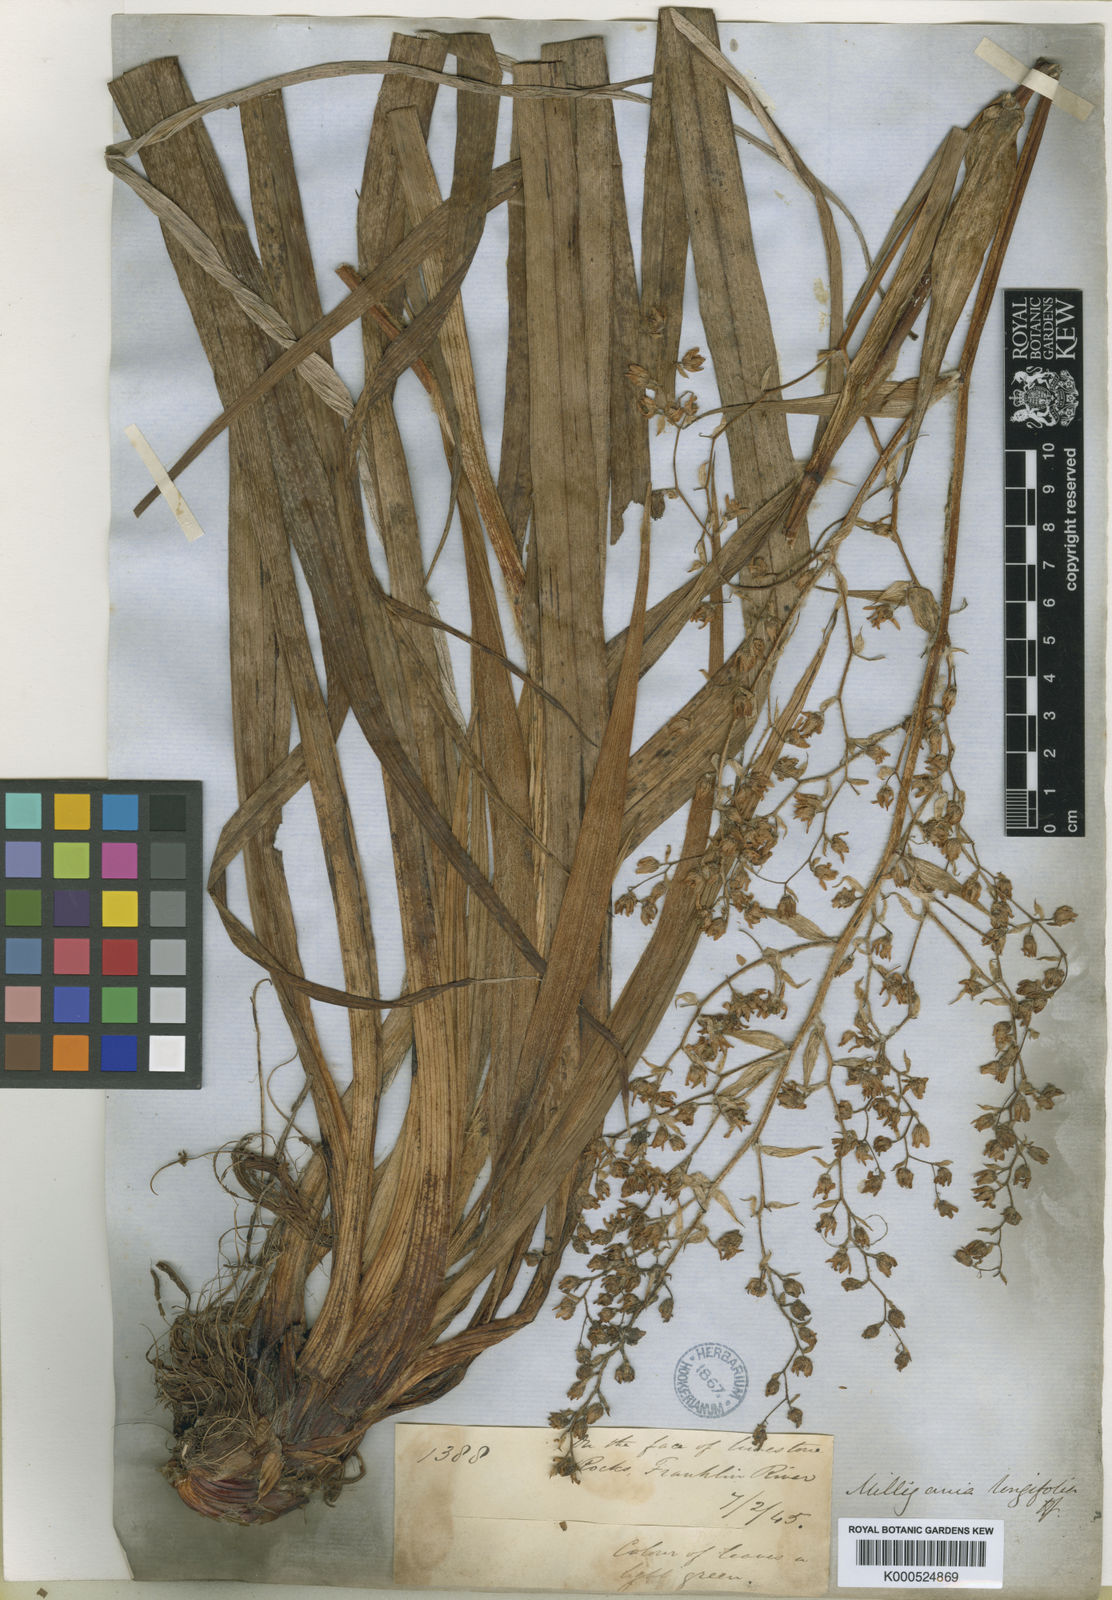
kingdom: Plantae
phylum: Tracheophyta
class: Liliopsida
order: Asparagales
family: Asteliaceae
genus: Milligania
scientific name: Milligania longifolia
